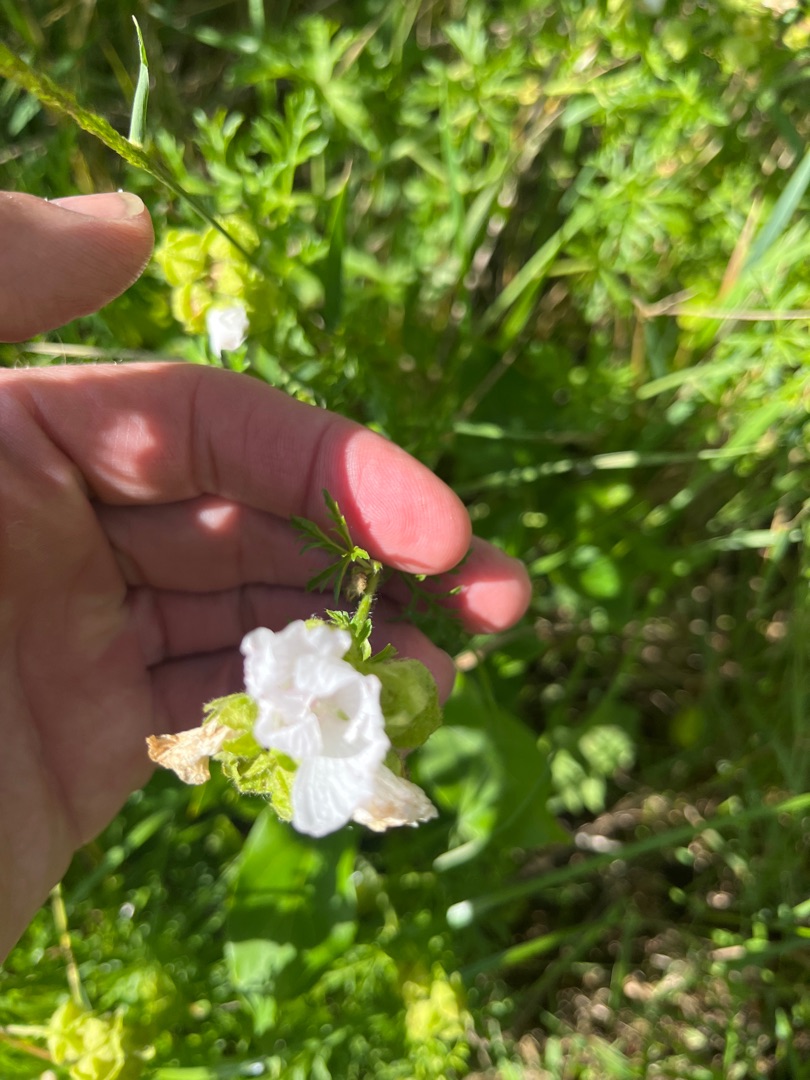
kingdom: Plantae
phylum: Tracheophyta
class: Magnoliopsida
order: Malvales
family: Malvaceae
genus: Malva
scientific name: Malva moschata
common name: Moskus-katost
